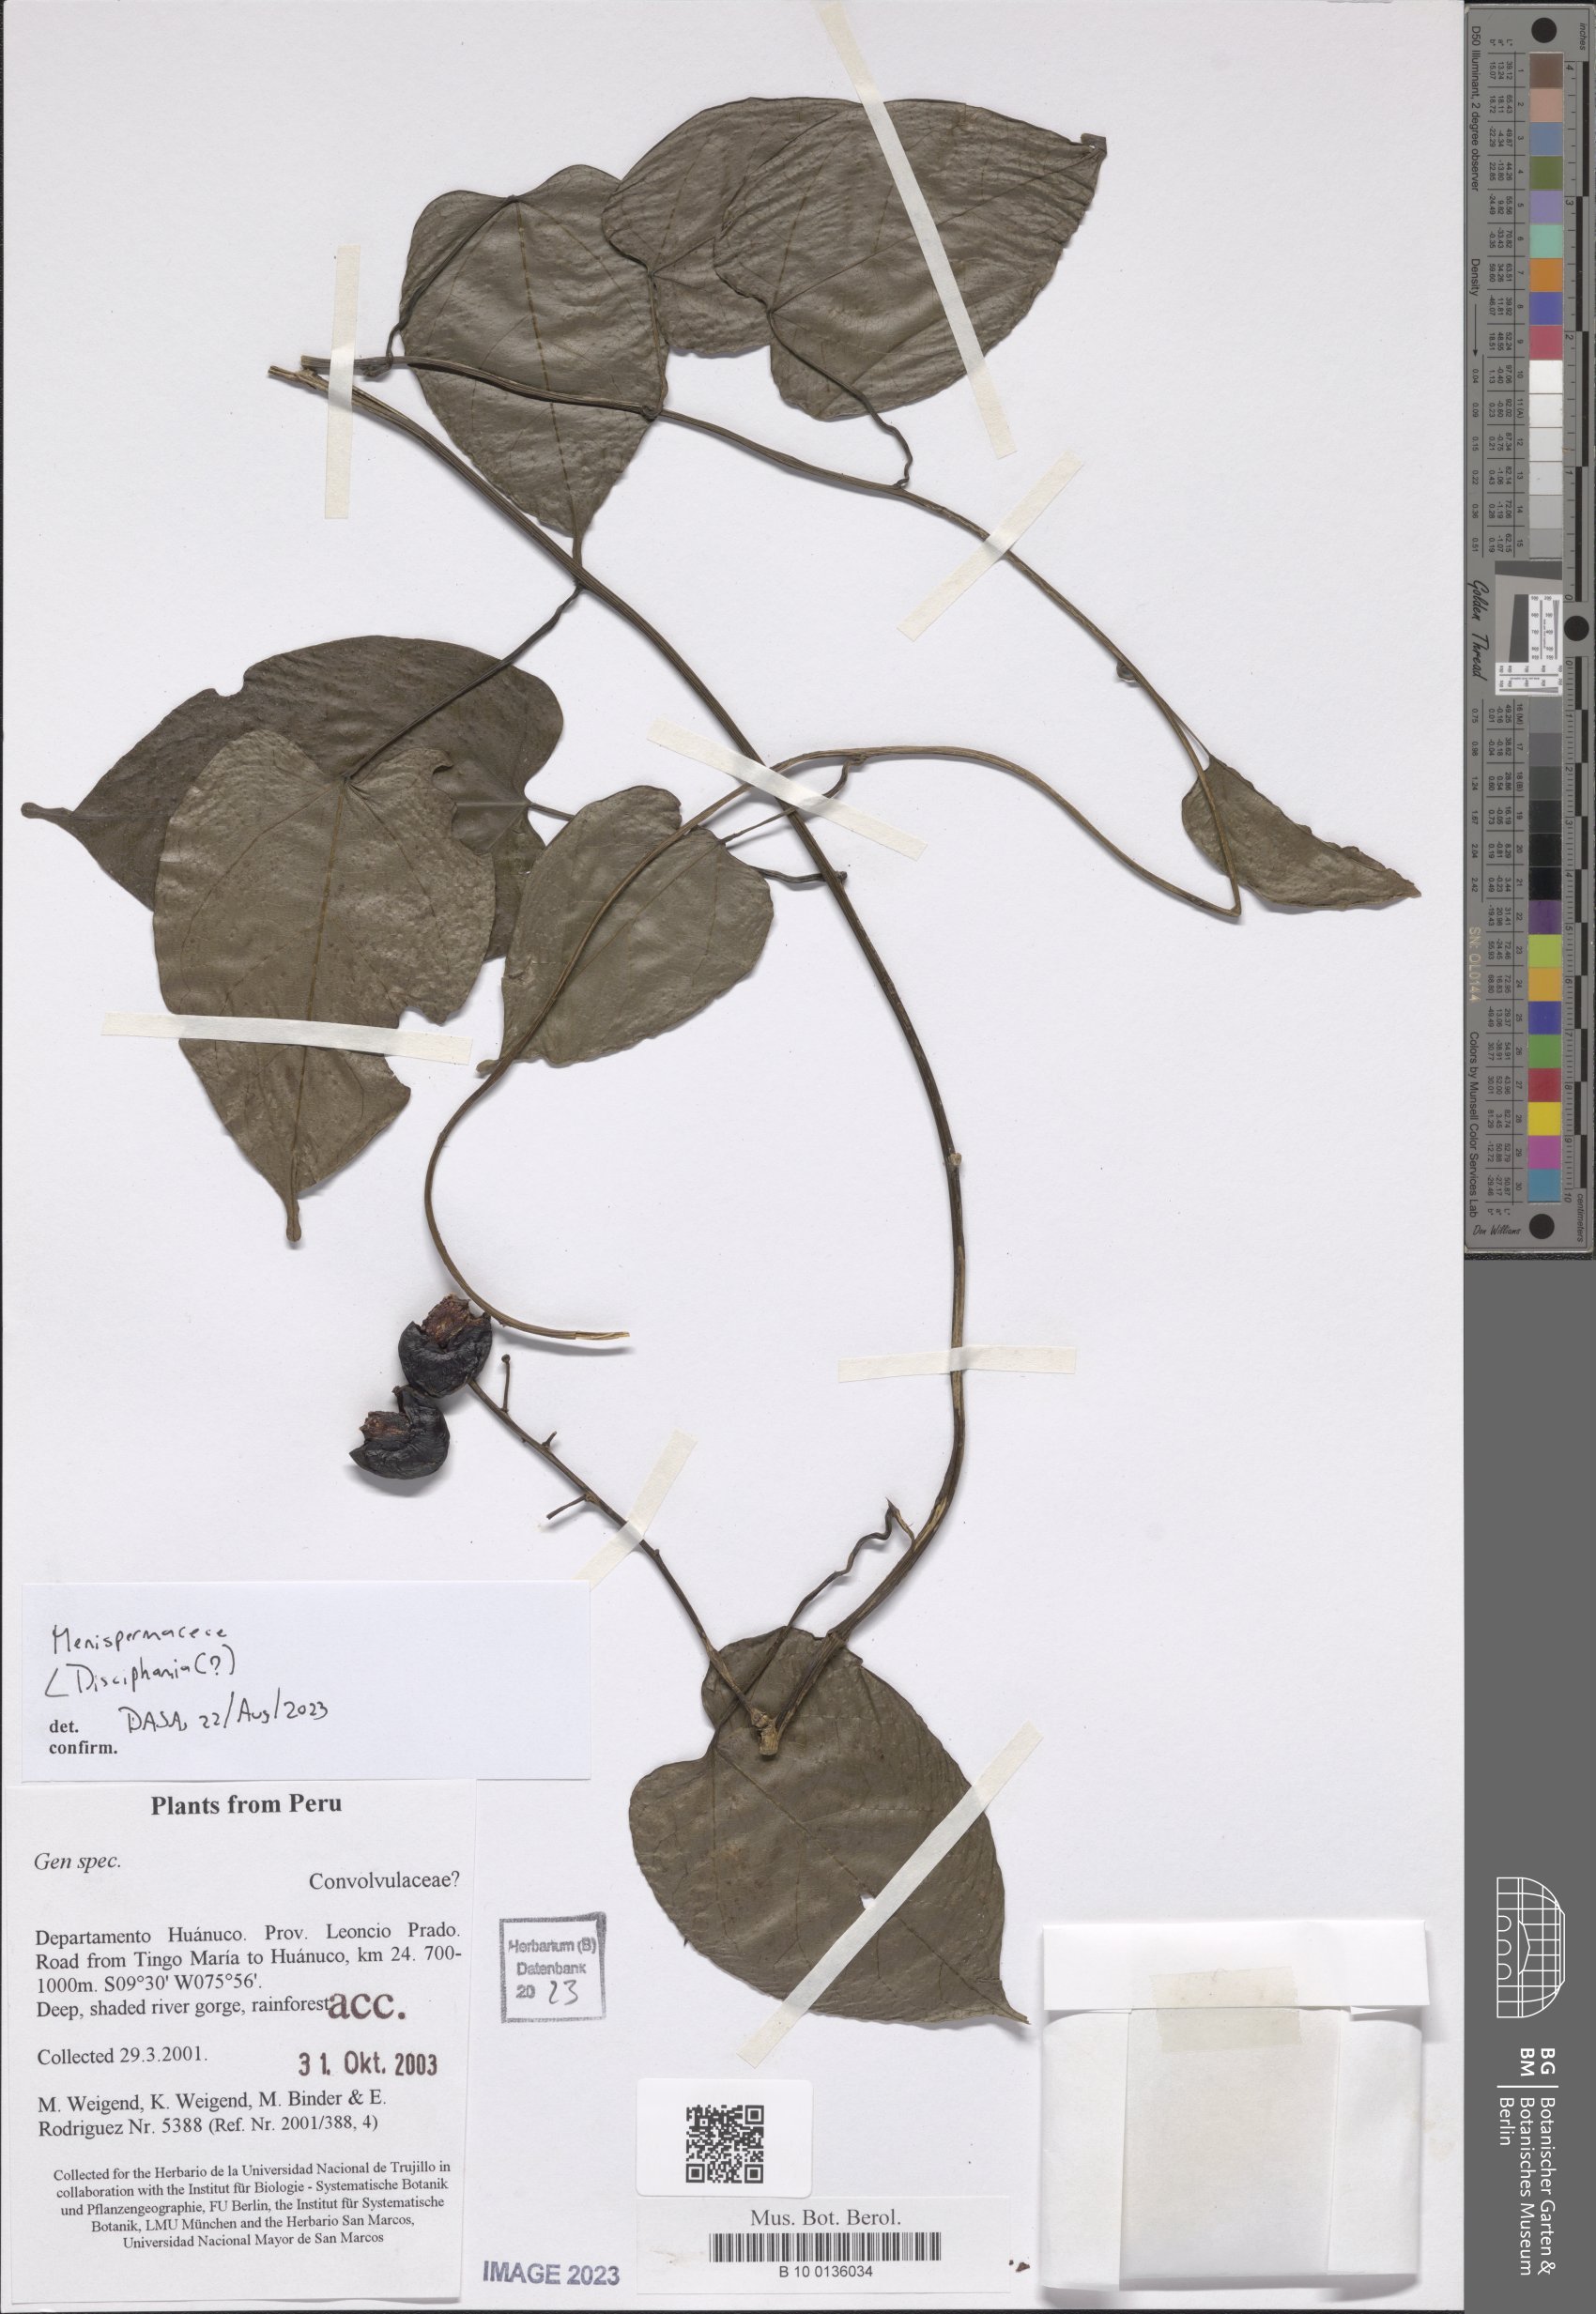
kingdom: Plantae
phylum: Tracheophyta
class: Magnoliopsida
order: Ranunculales
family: Menispermaceae
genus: Disciphania
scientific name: Disciphania
